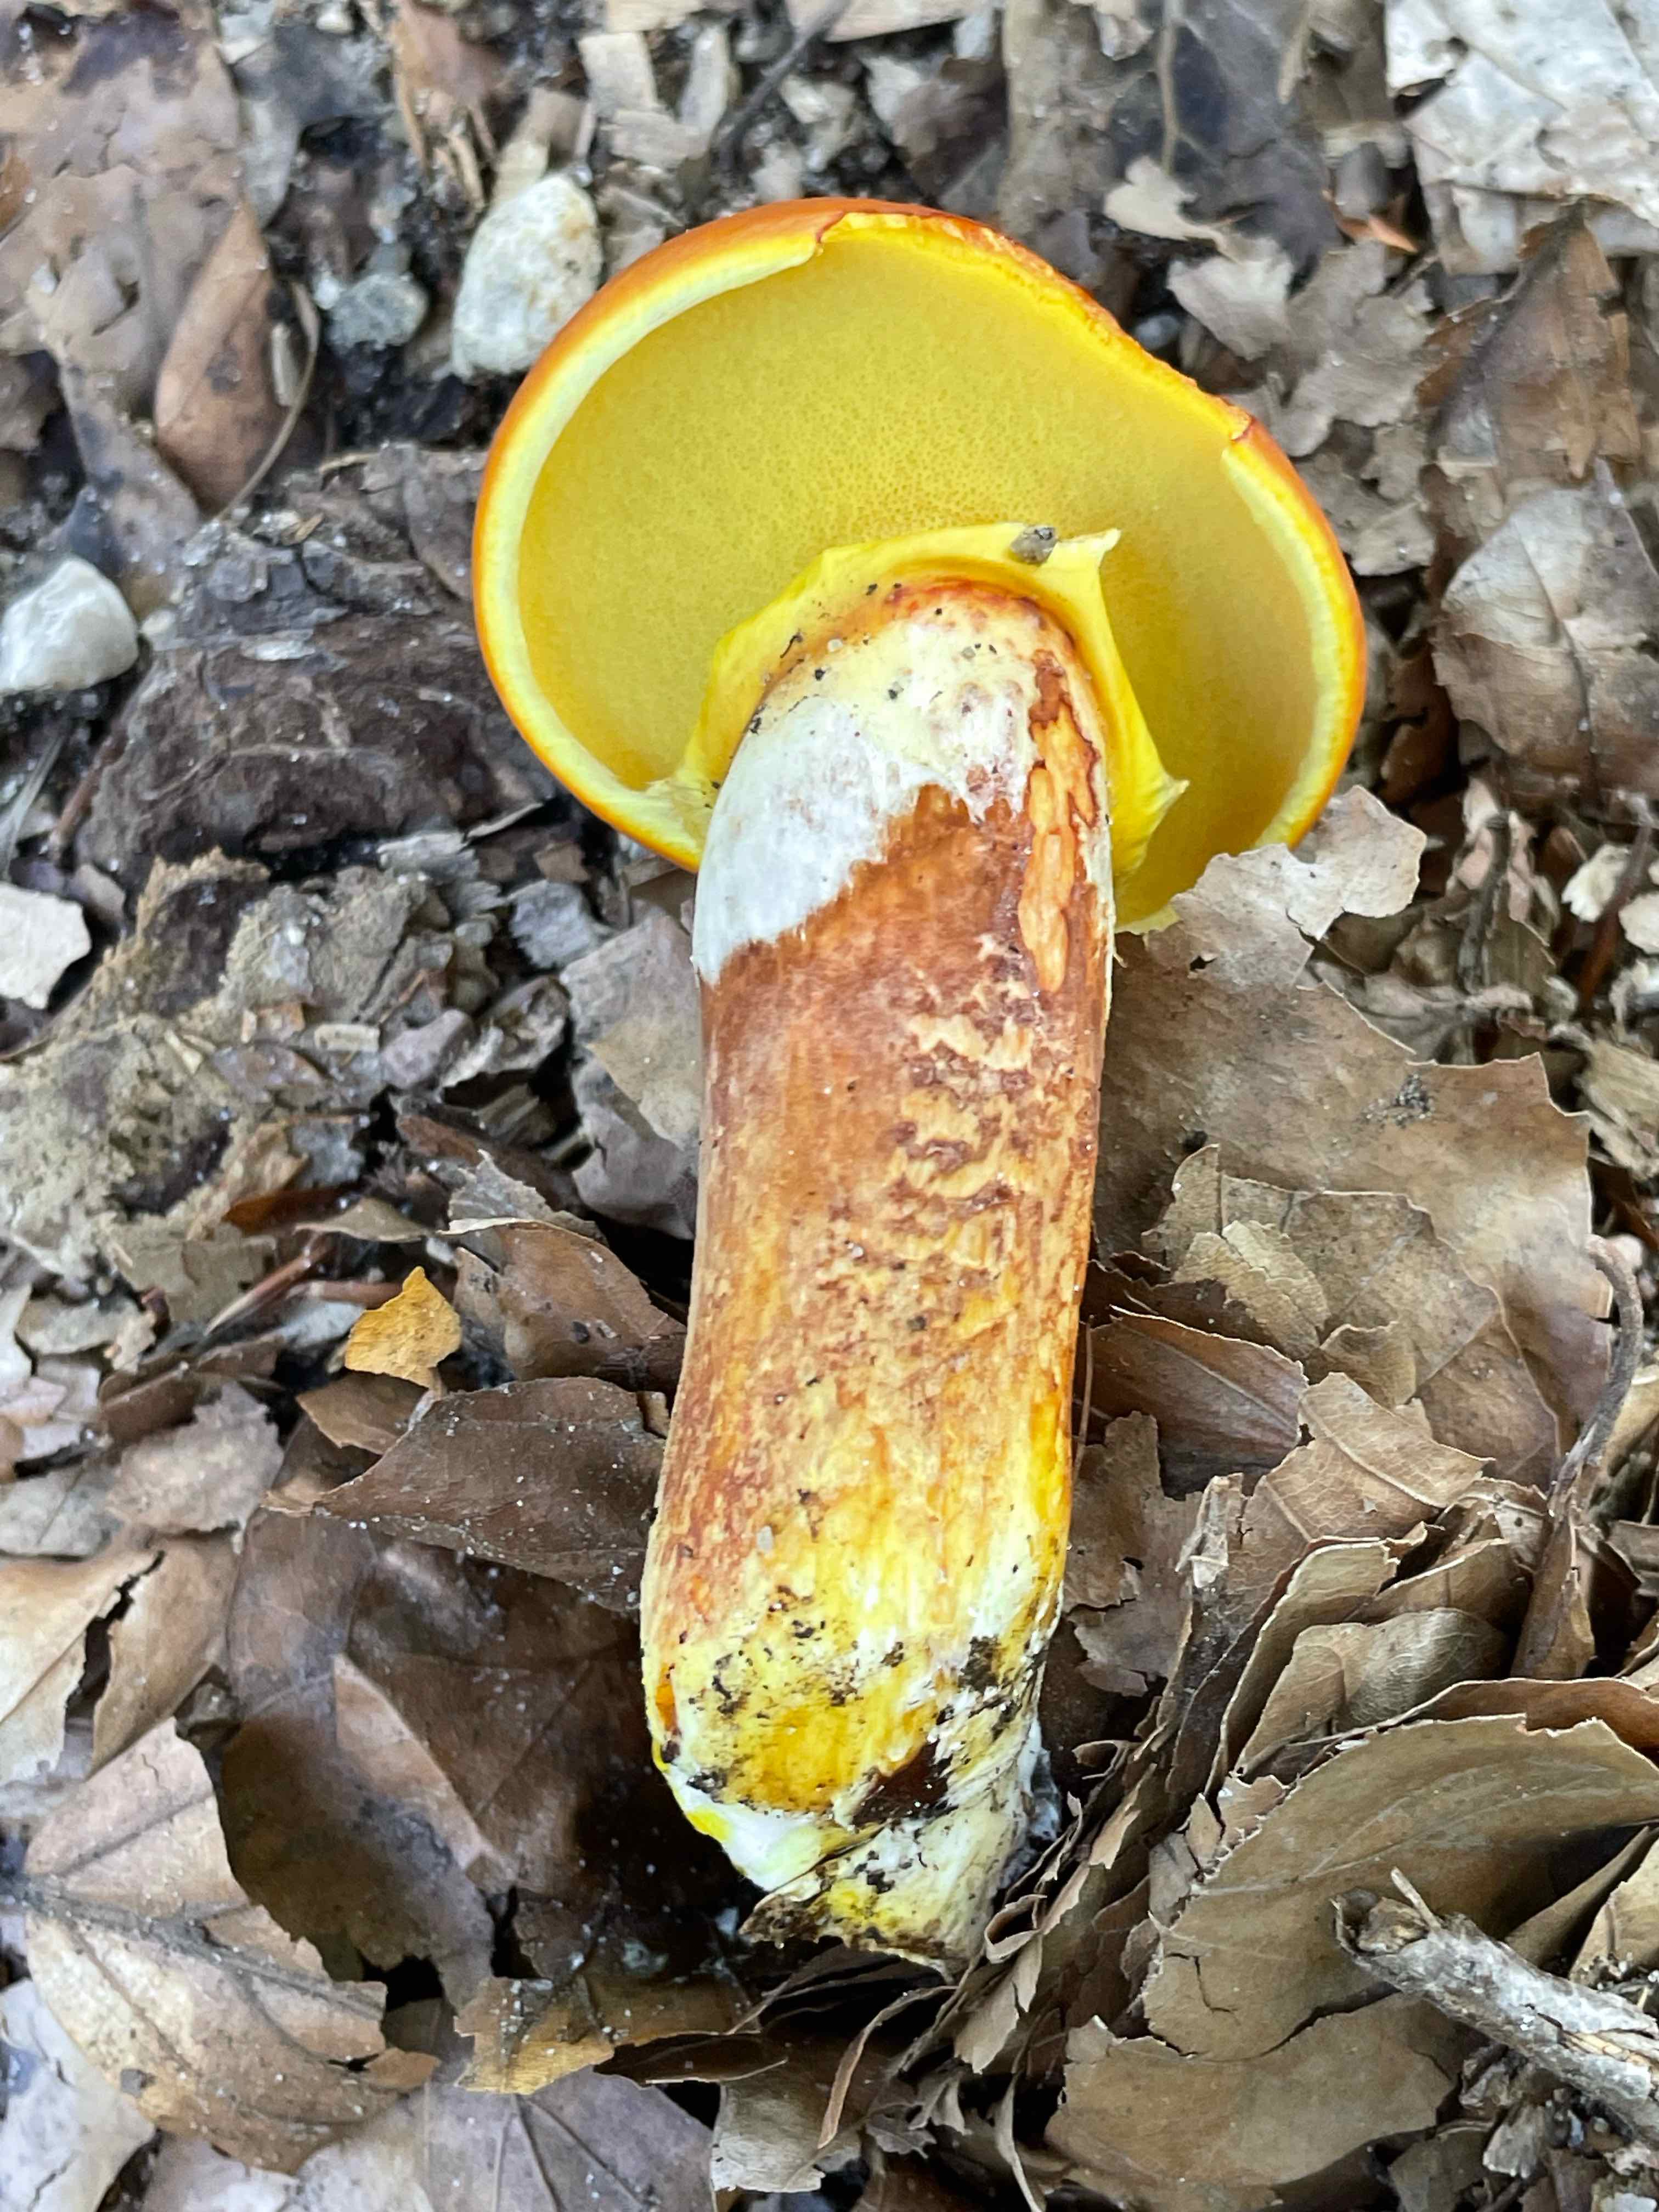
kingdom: Fungi
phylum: Basidiomycota
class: Agaricomycetes
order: Boletales
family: Suillaceae
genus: Suillus
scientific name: Suillus grevillei
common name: lærke-slimrørhat
